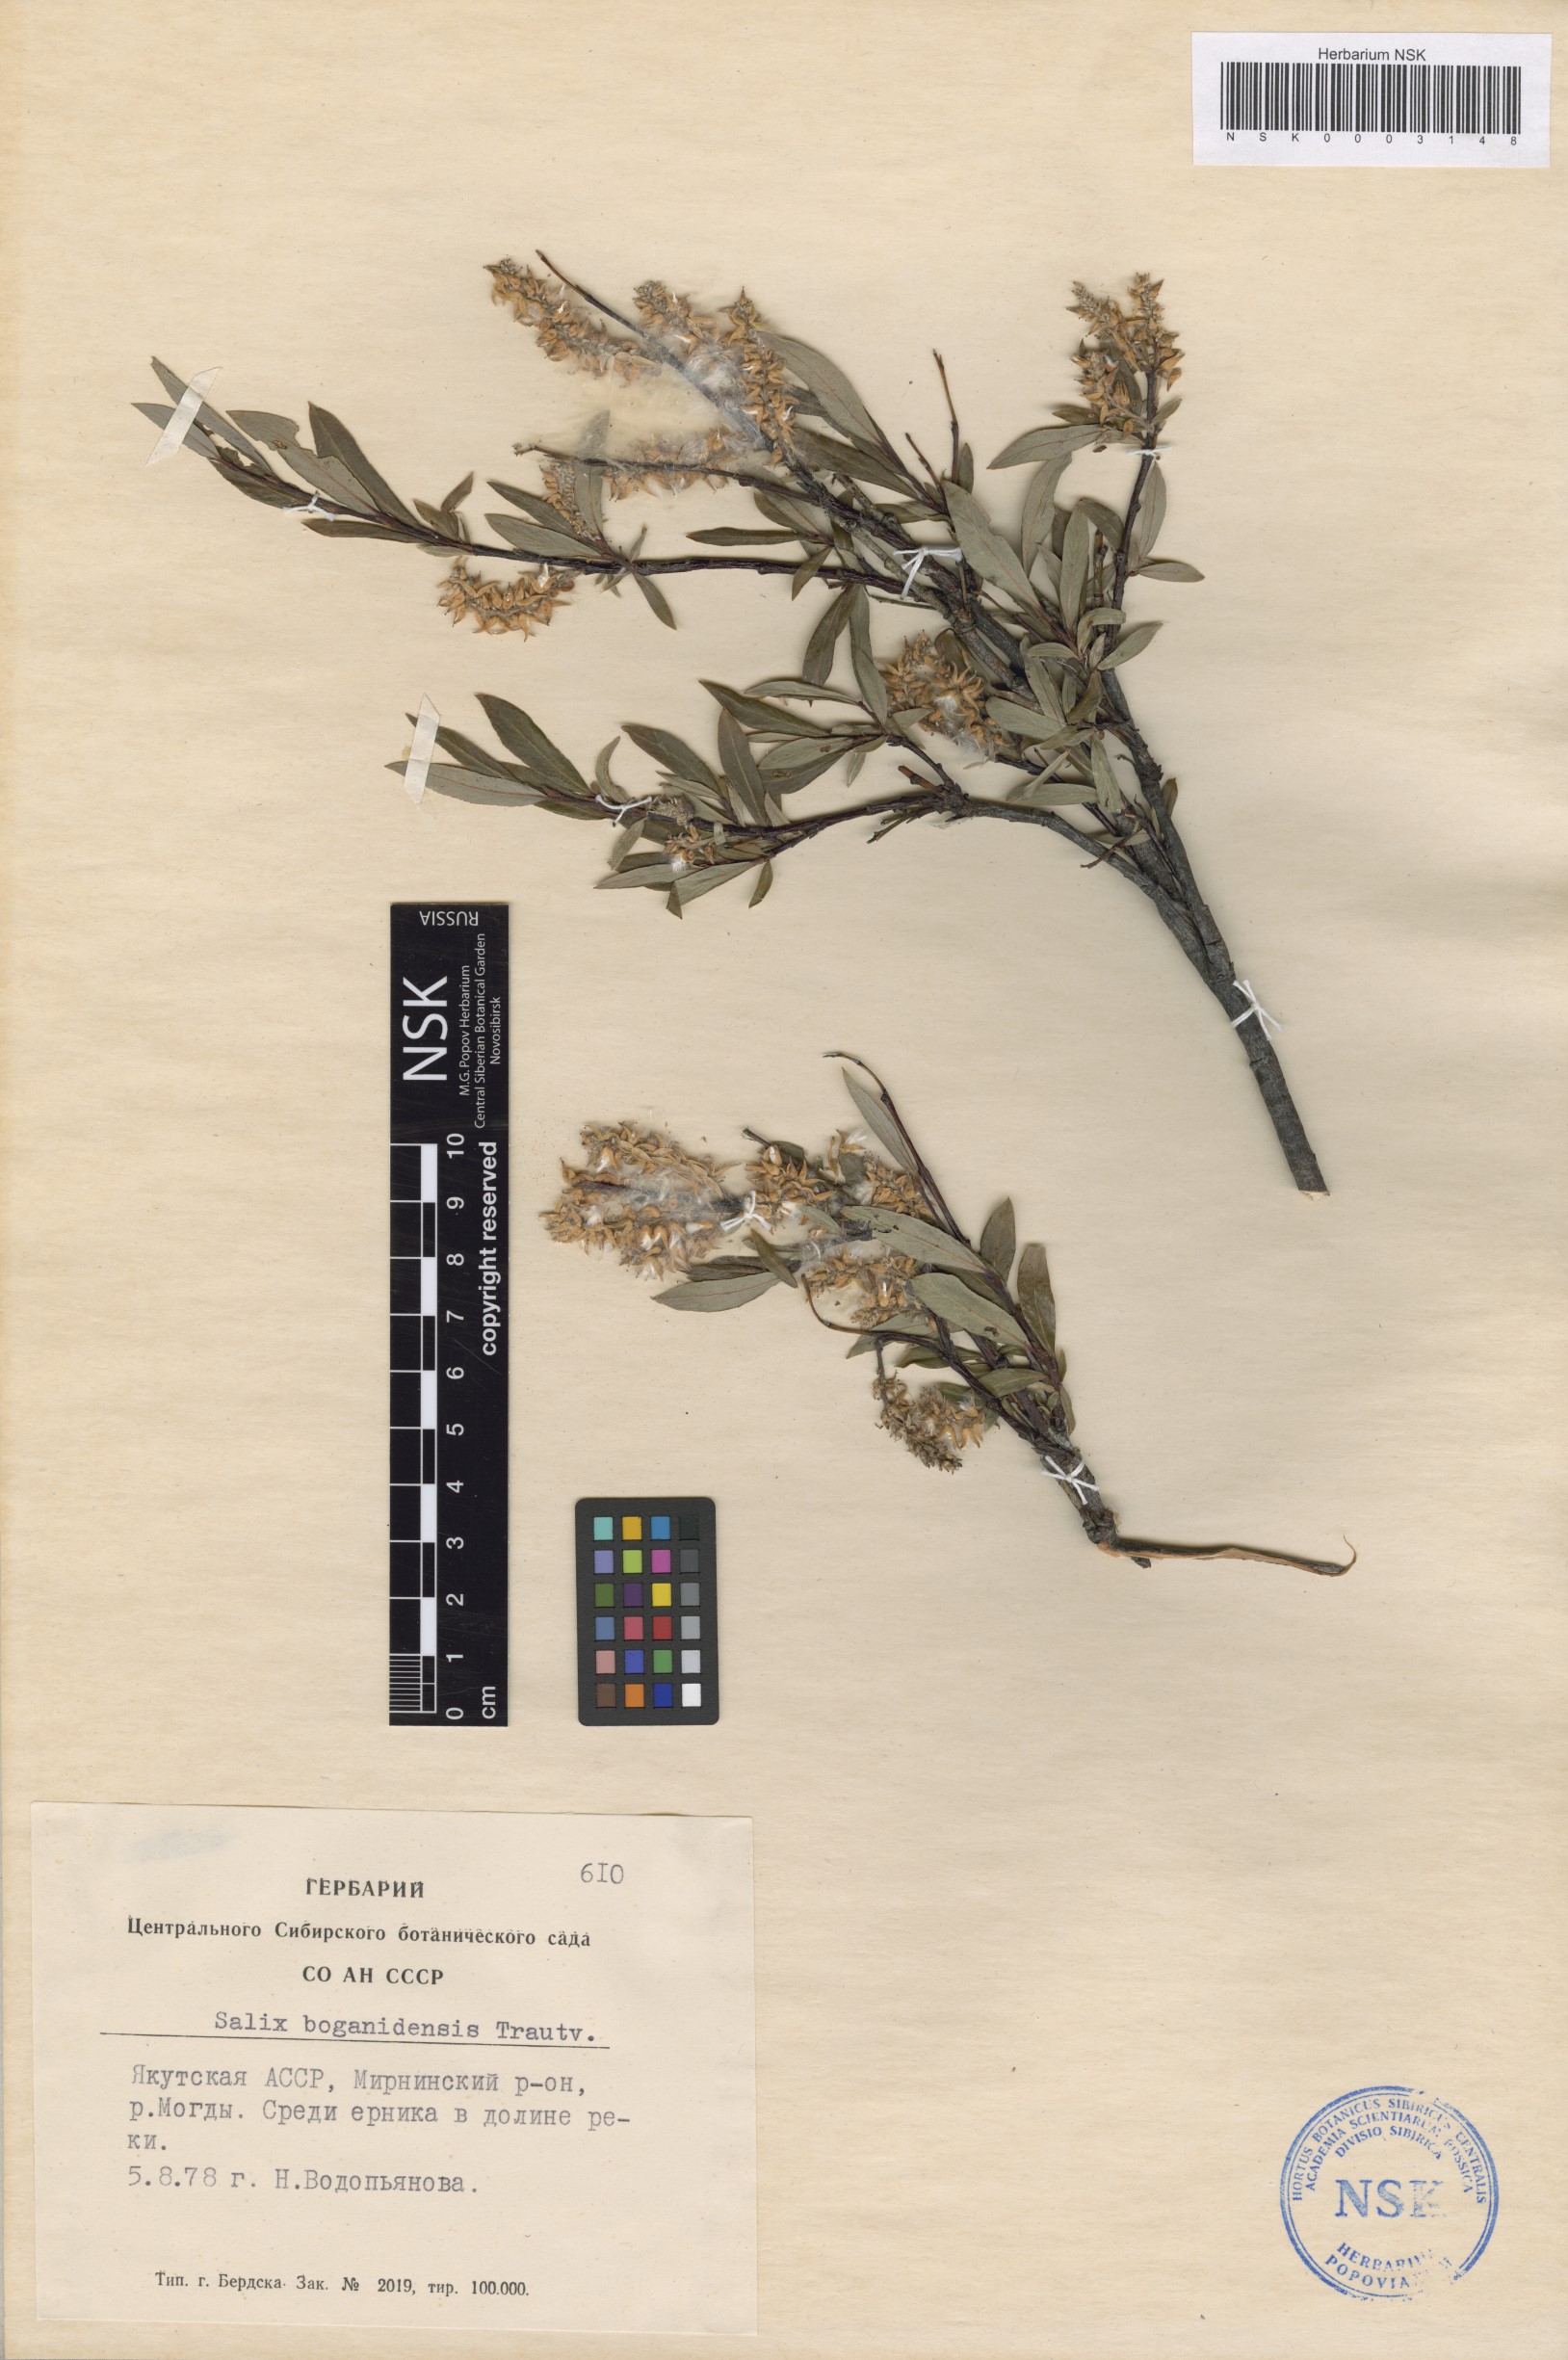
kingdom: Plantae
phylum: Tracheophyta
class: Magnoliopsida
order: Malpighiales
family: Salicaceae
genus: Salix
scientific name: Salix boganidensis
